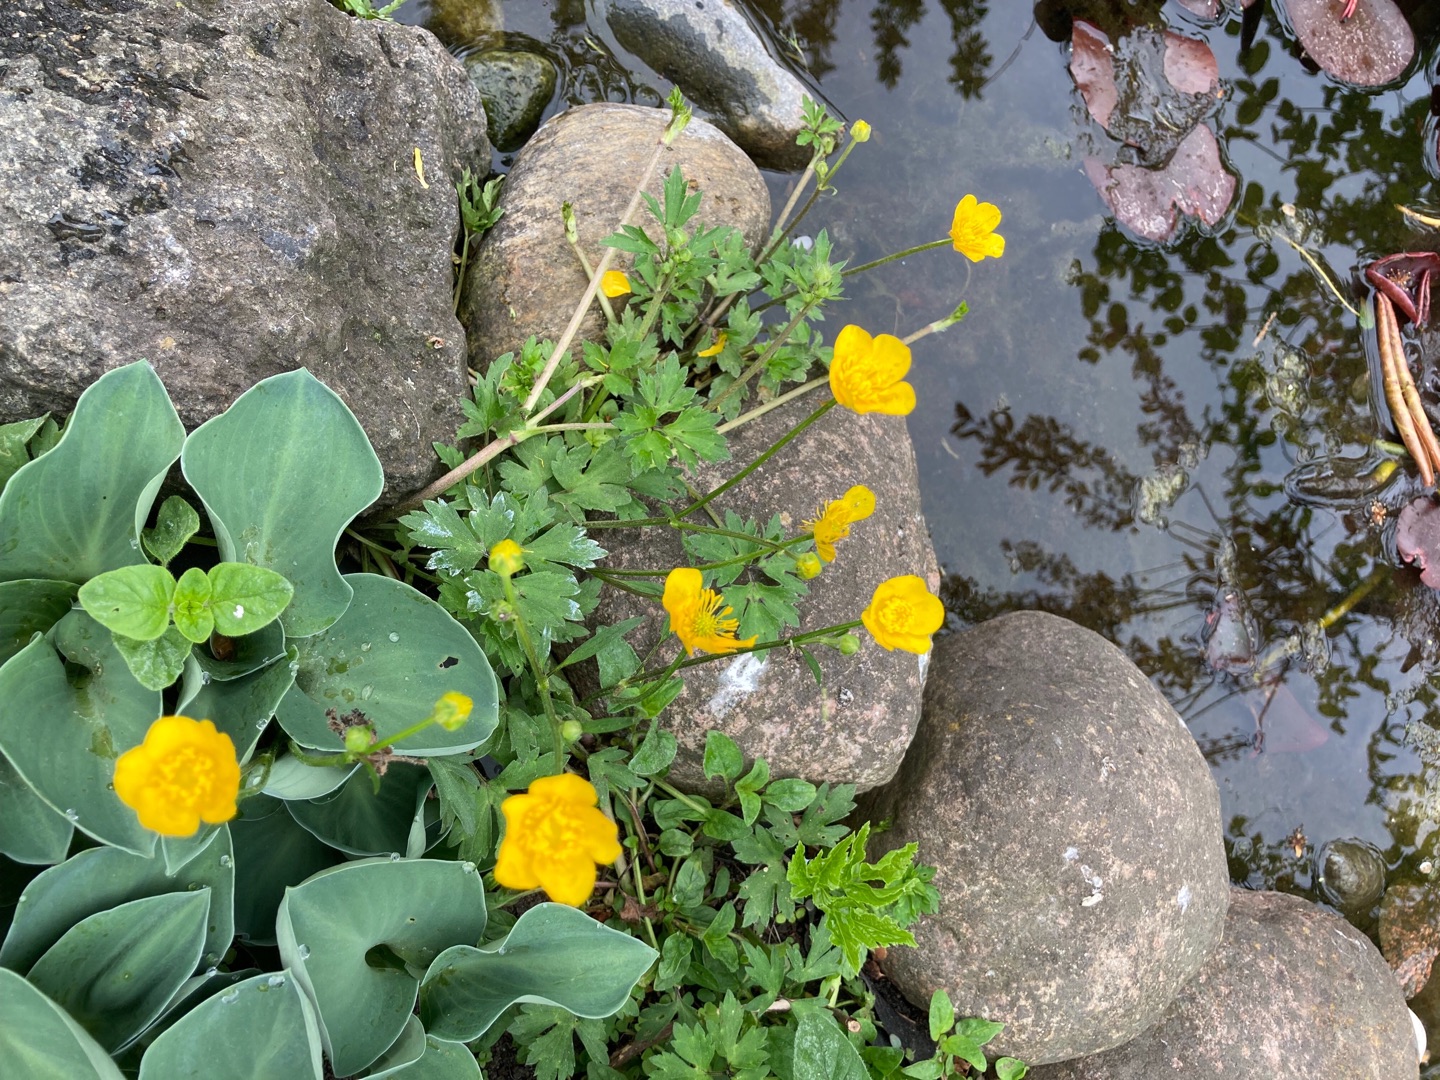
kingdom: Plantae
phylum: Tracheophyta
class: Magnoliopsida
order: Ranunculales
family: Ranunculaceae
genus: Ranunculus
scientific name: Ranunculus repens
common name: Lav ranunkel
